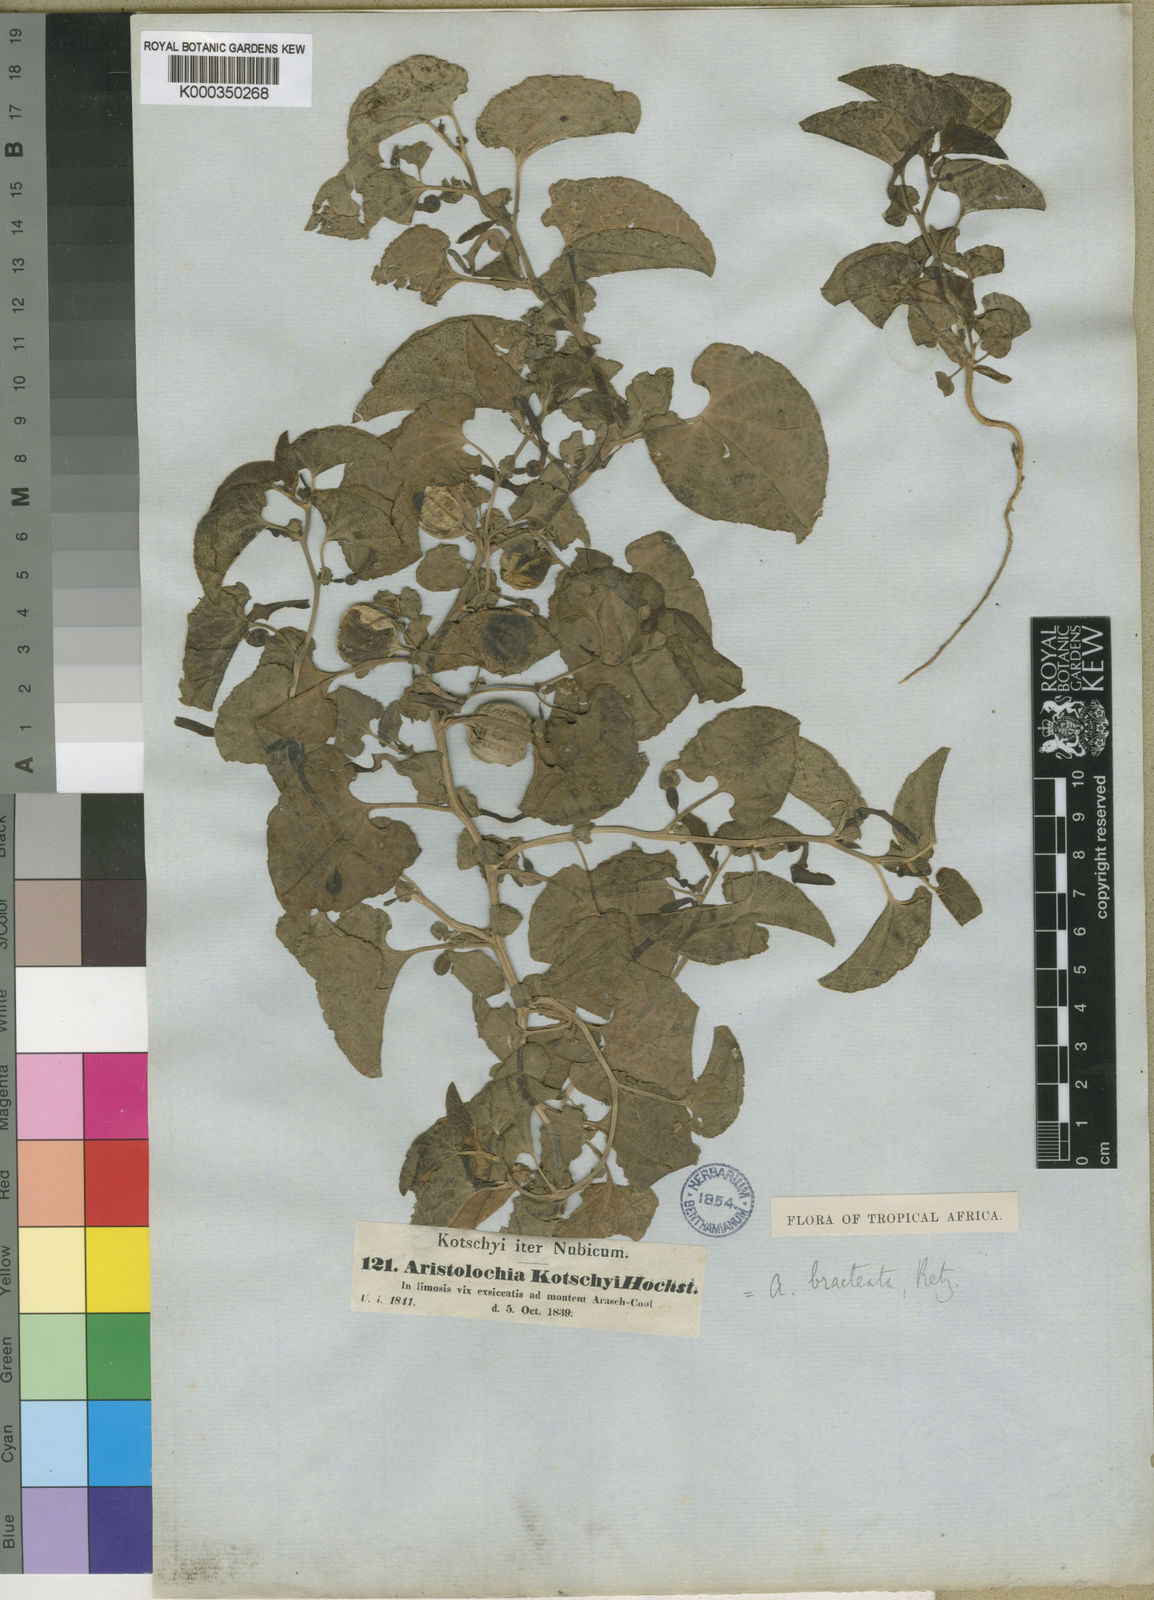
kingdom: Plantae
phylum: Tracheophyta
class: Magnoliopsida
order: Piperales
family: Aristolochiaceae
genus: Aristolochia
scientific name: Aristolochia bracteolata
